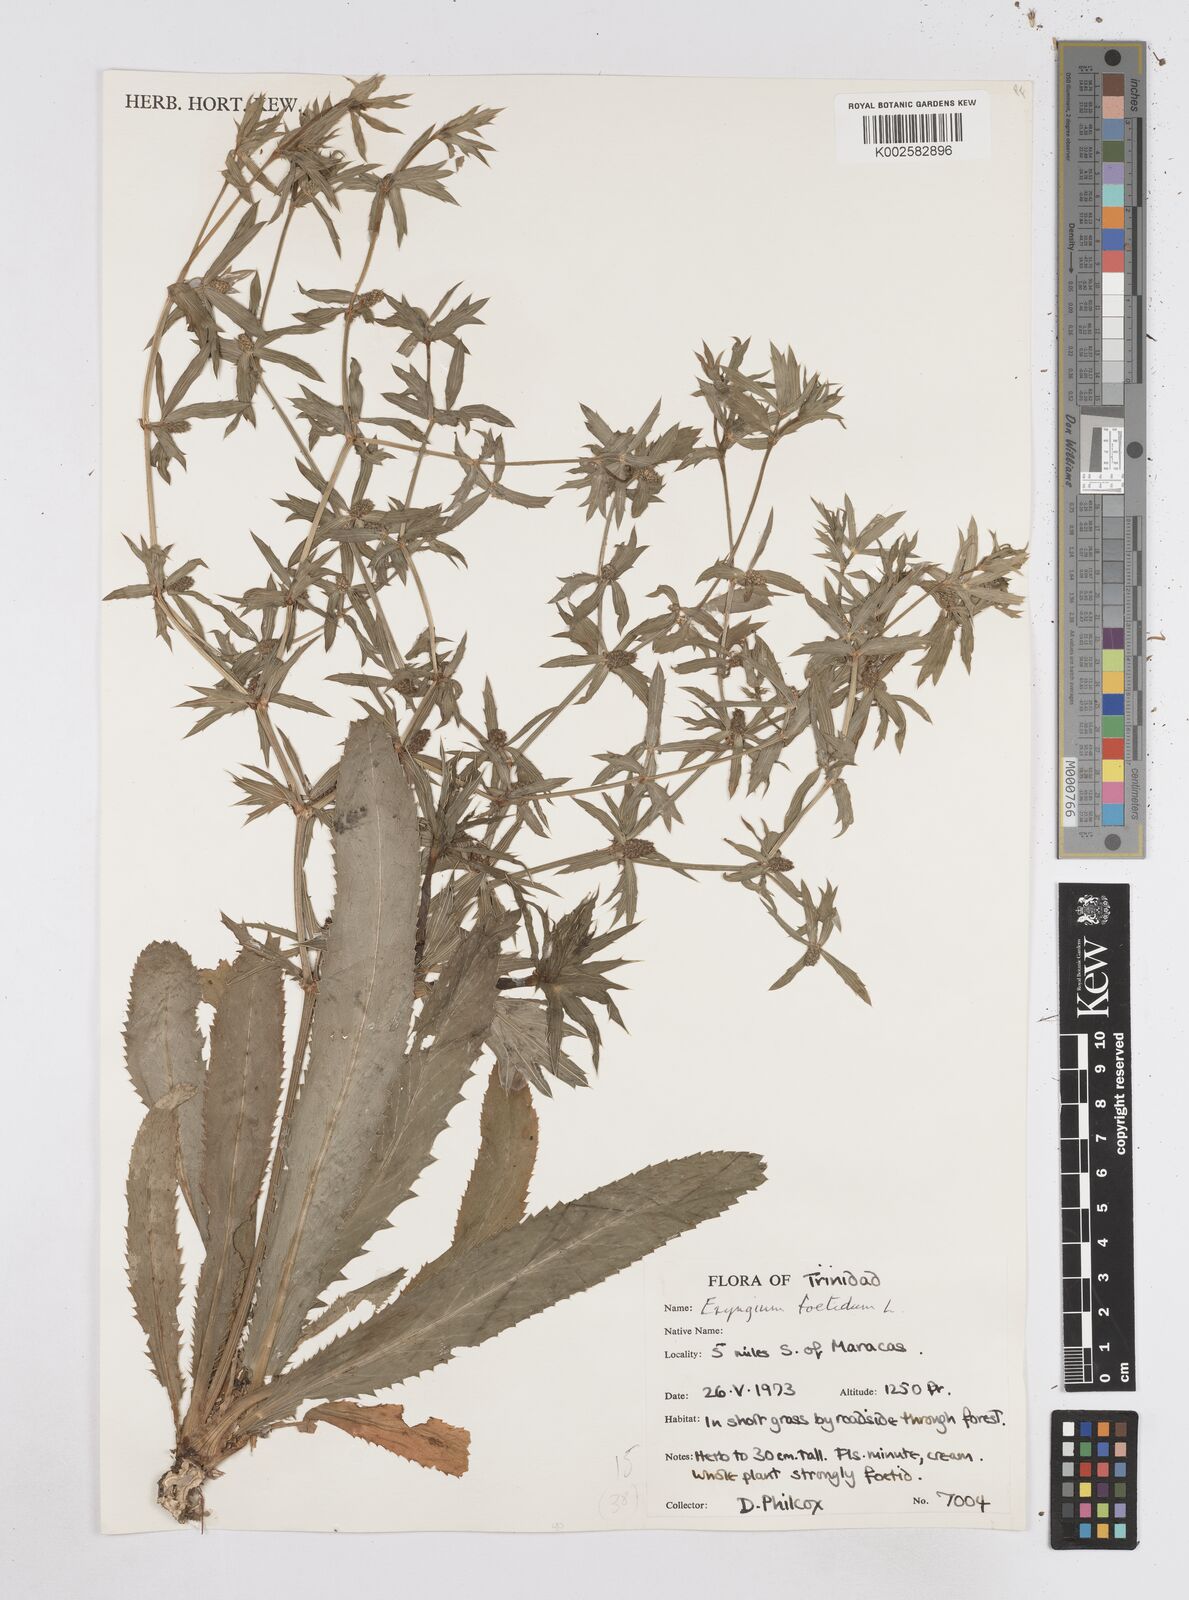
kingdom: Plantae
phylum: Tracheophyta
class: Magnoliopsida
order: Apiales
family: Apiaceae
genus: Eryngium
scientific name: Eryngium foetidum
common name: Fitweed
